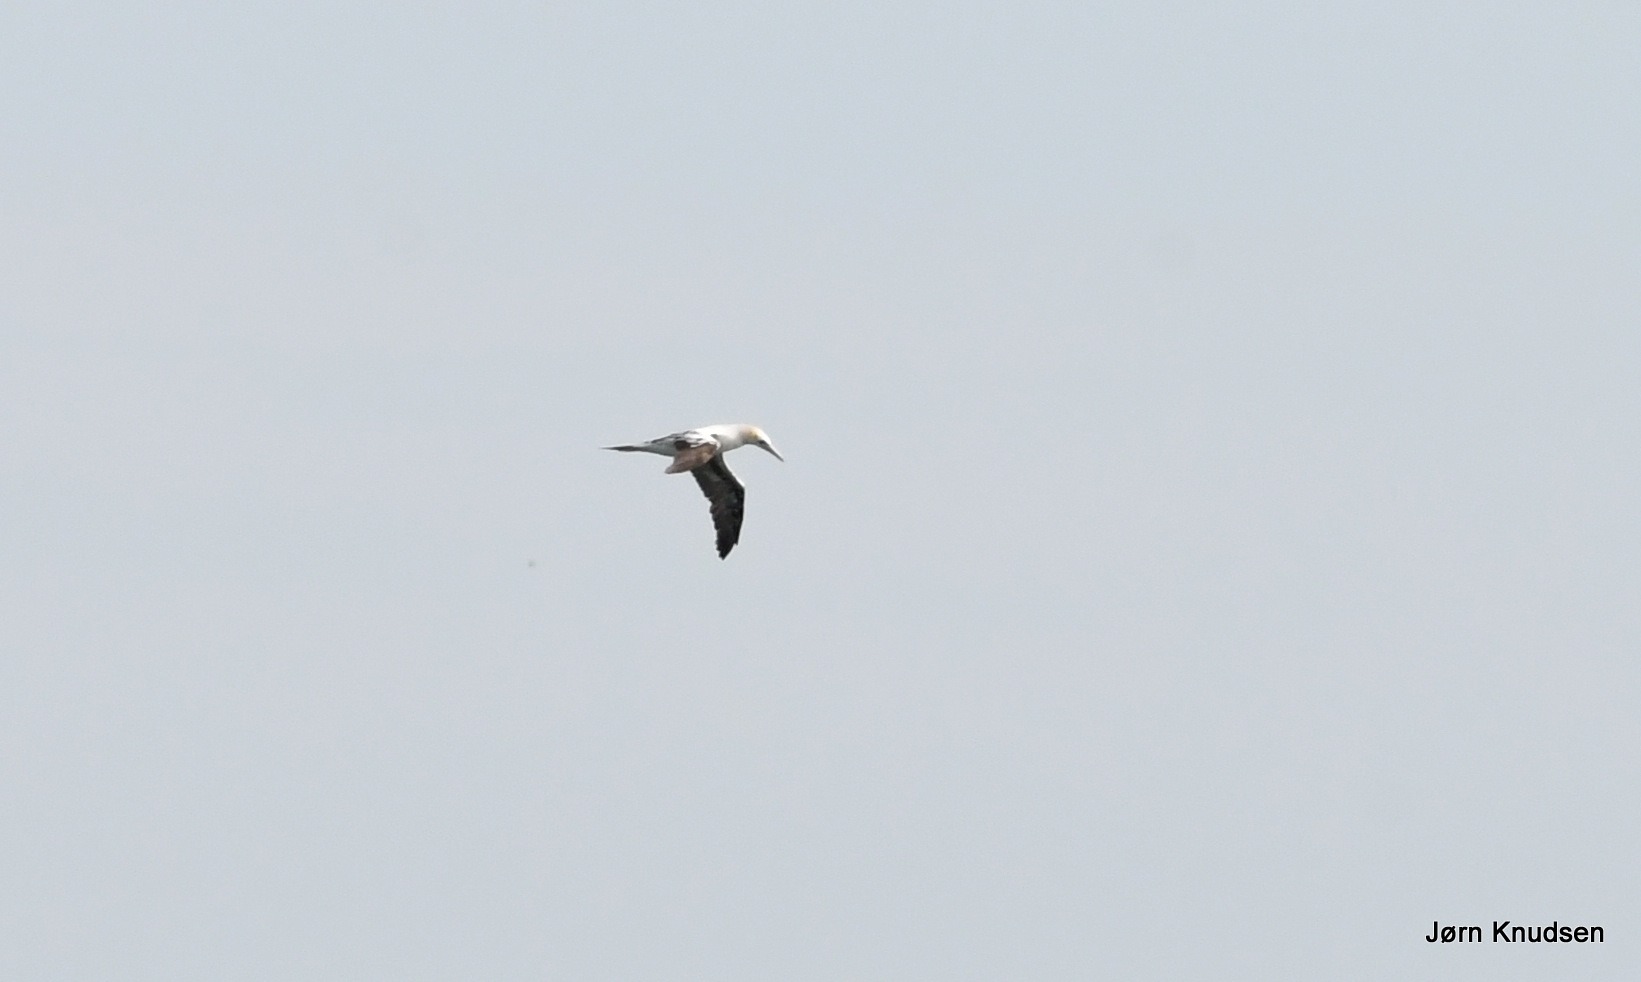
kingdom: Animalia
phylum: Chordata
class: Aves
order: Suliformes
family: Sulidae
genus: Morus
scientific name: Morus bassanus
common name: Sule
